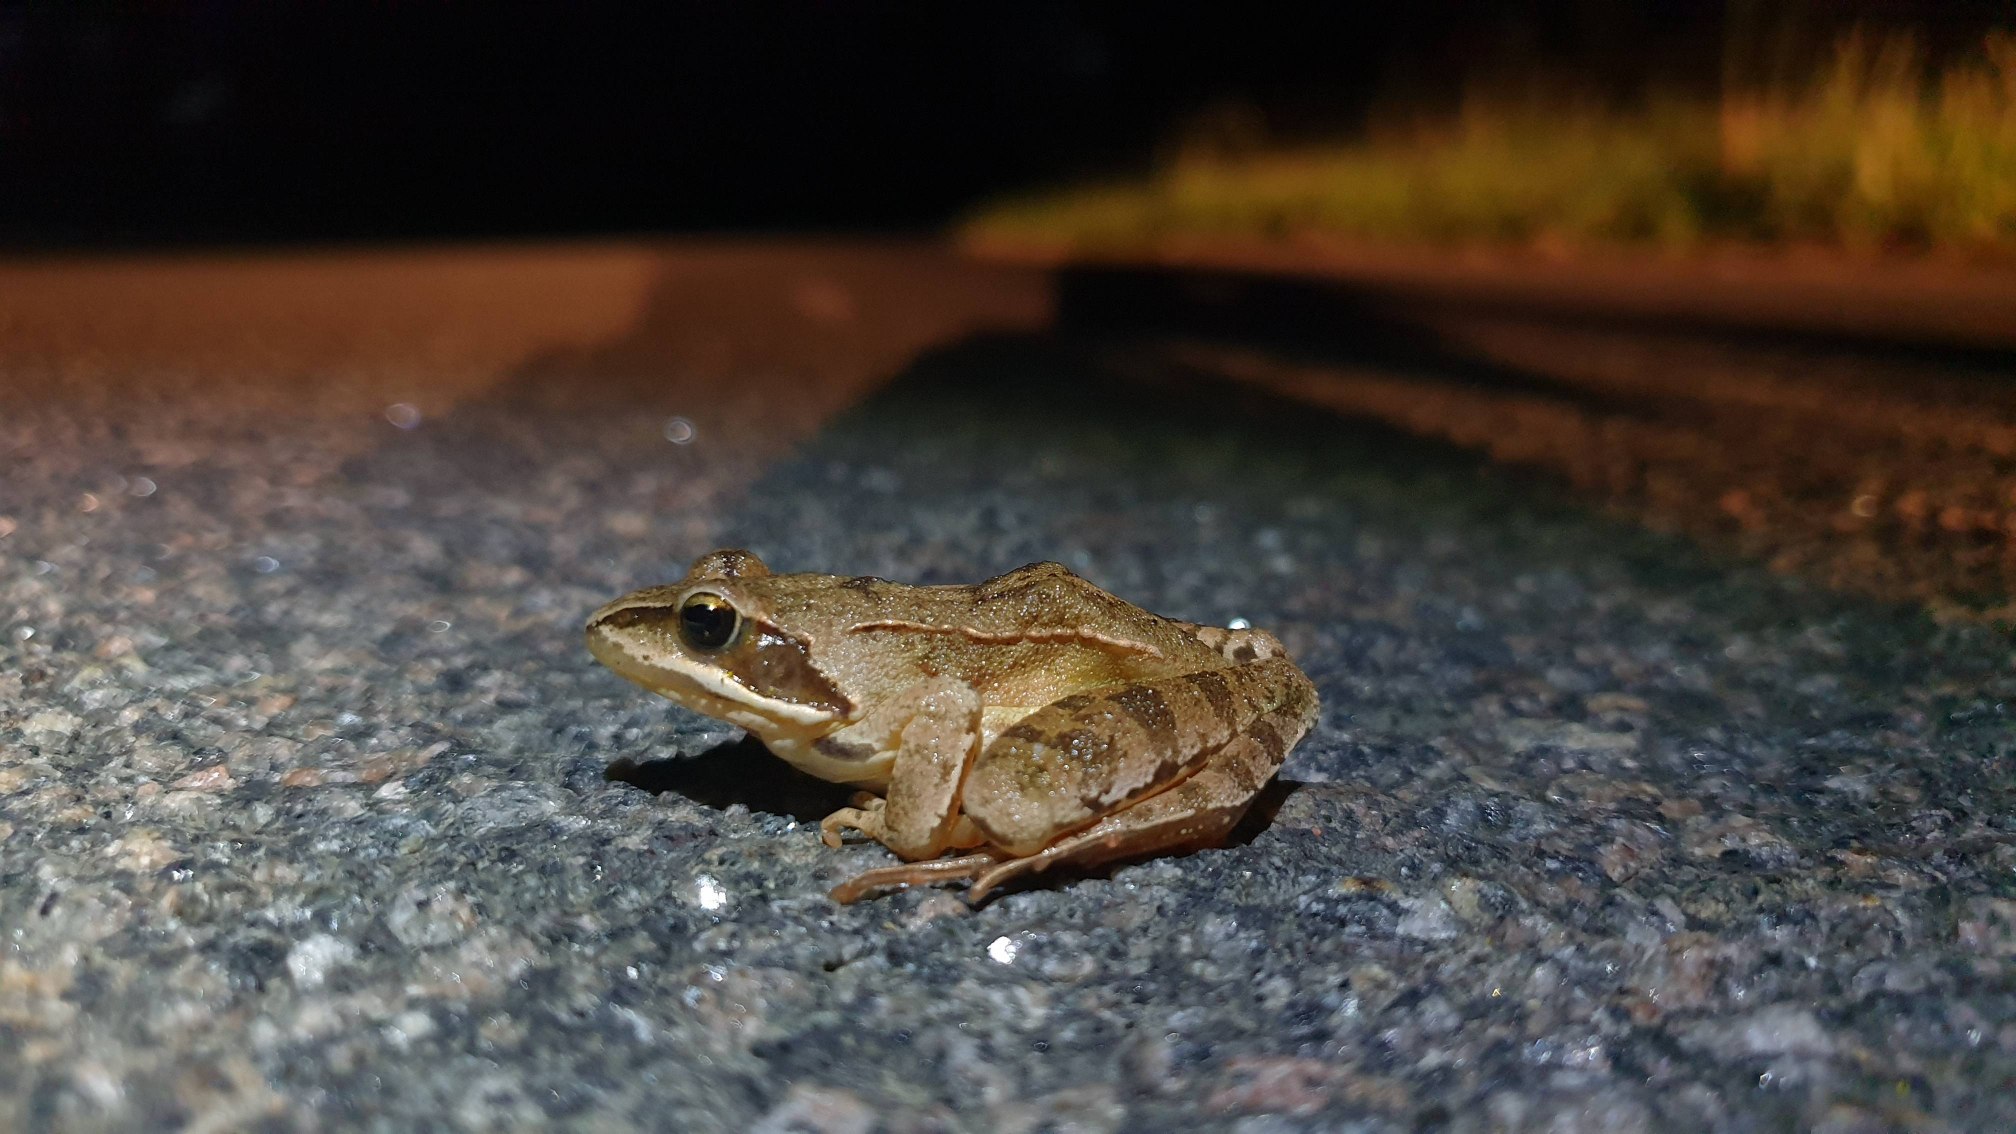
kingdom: Animalia
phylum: Chordata
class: Amphibia
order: Anura
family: Ranidae
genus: Rana
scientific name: Rana dalmatina
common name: Springfrø
